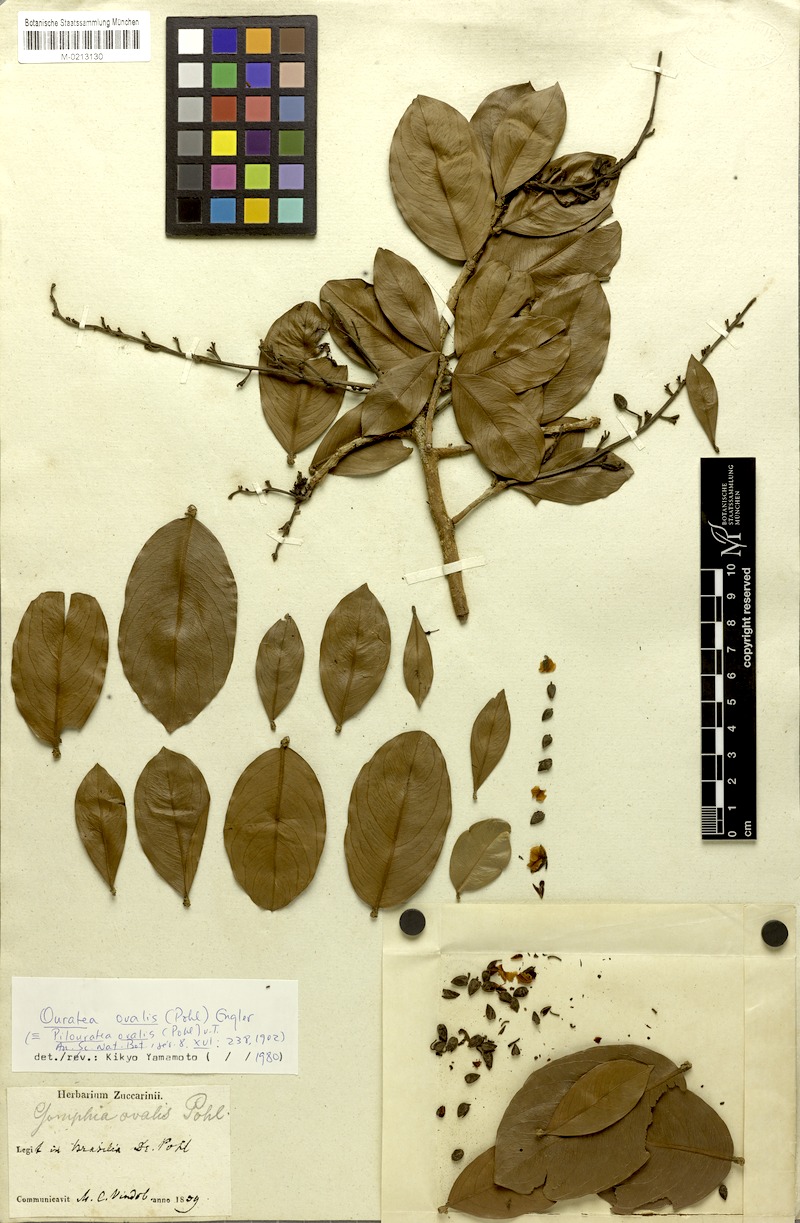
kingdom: Plantae
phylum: Tracheophyta
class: Magnoliopsida
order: Malpighiales
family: Ochnaceae
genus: Ouratea
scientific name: Ouratea ovalis
